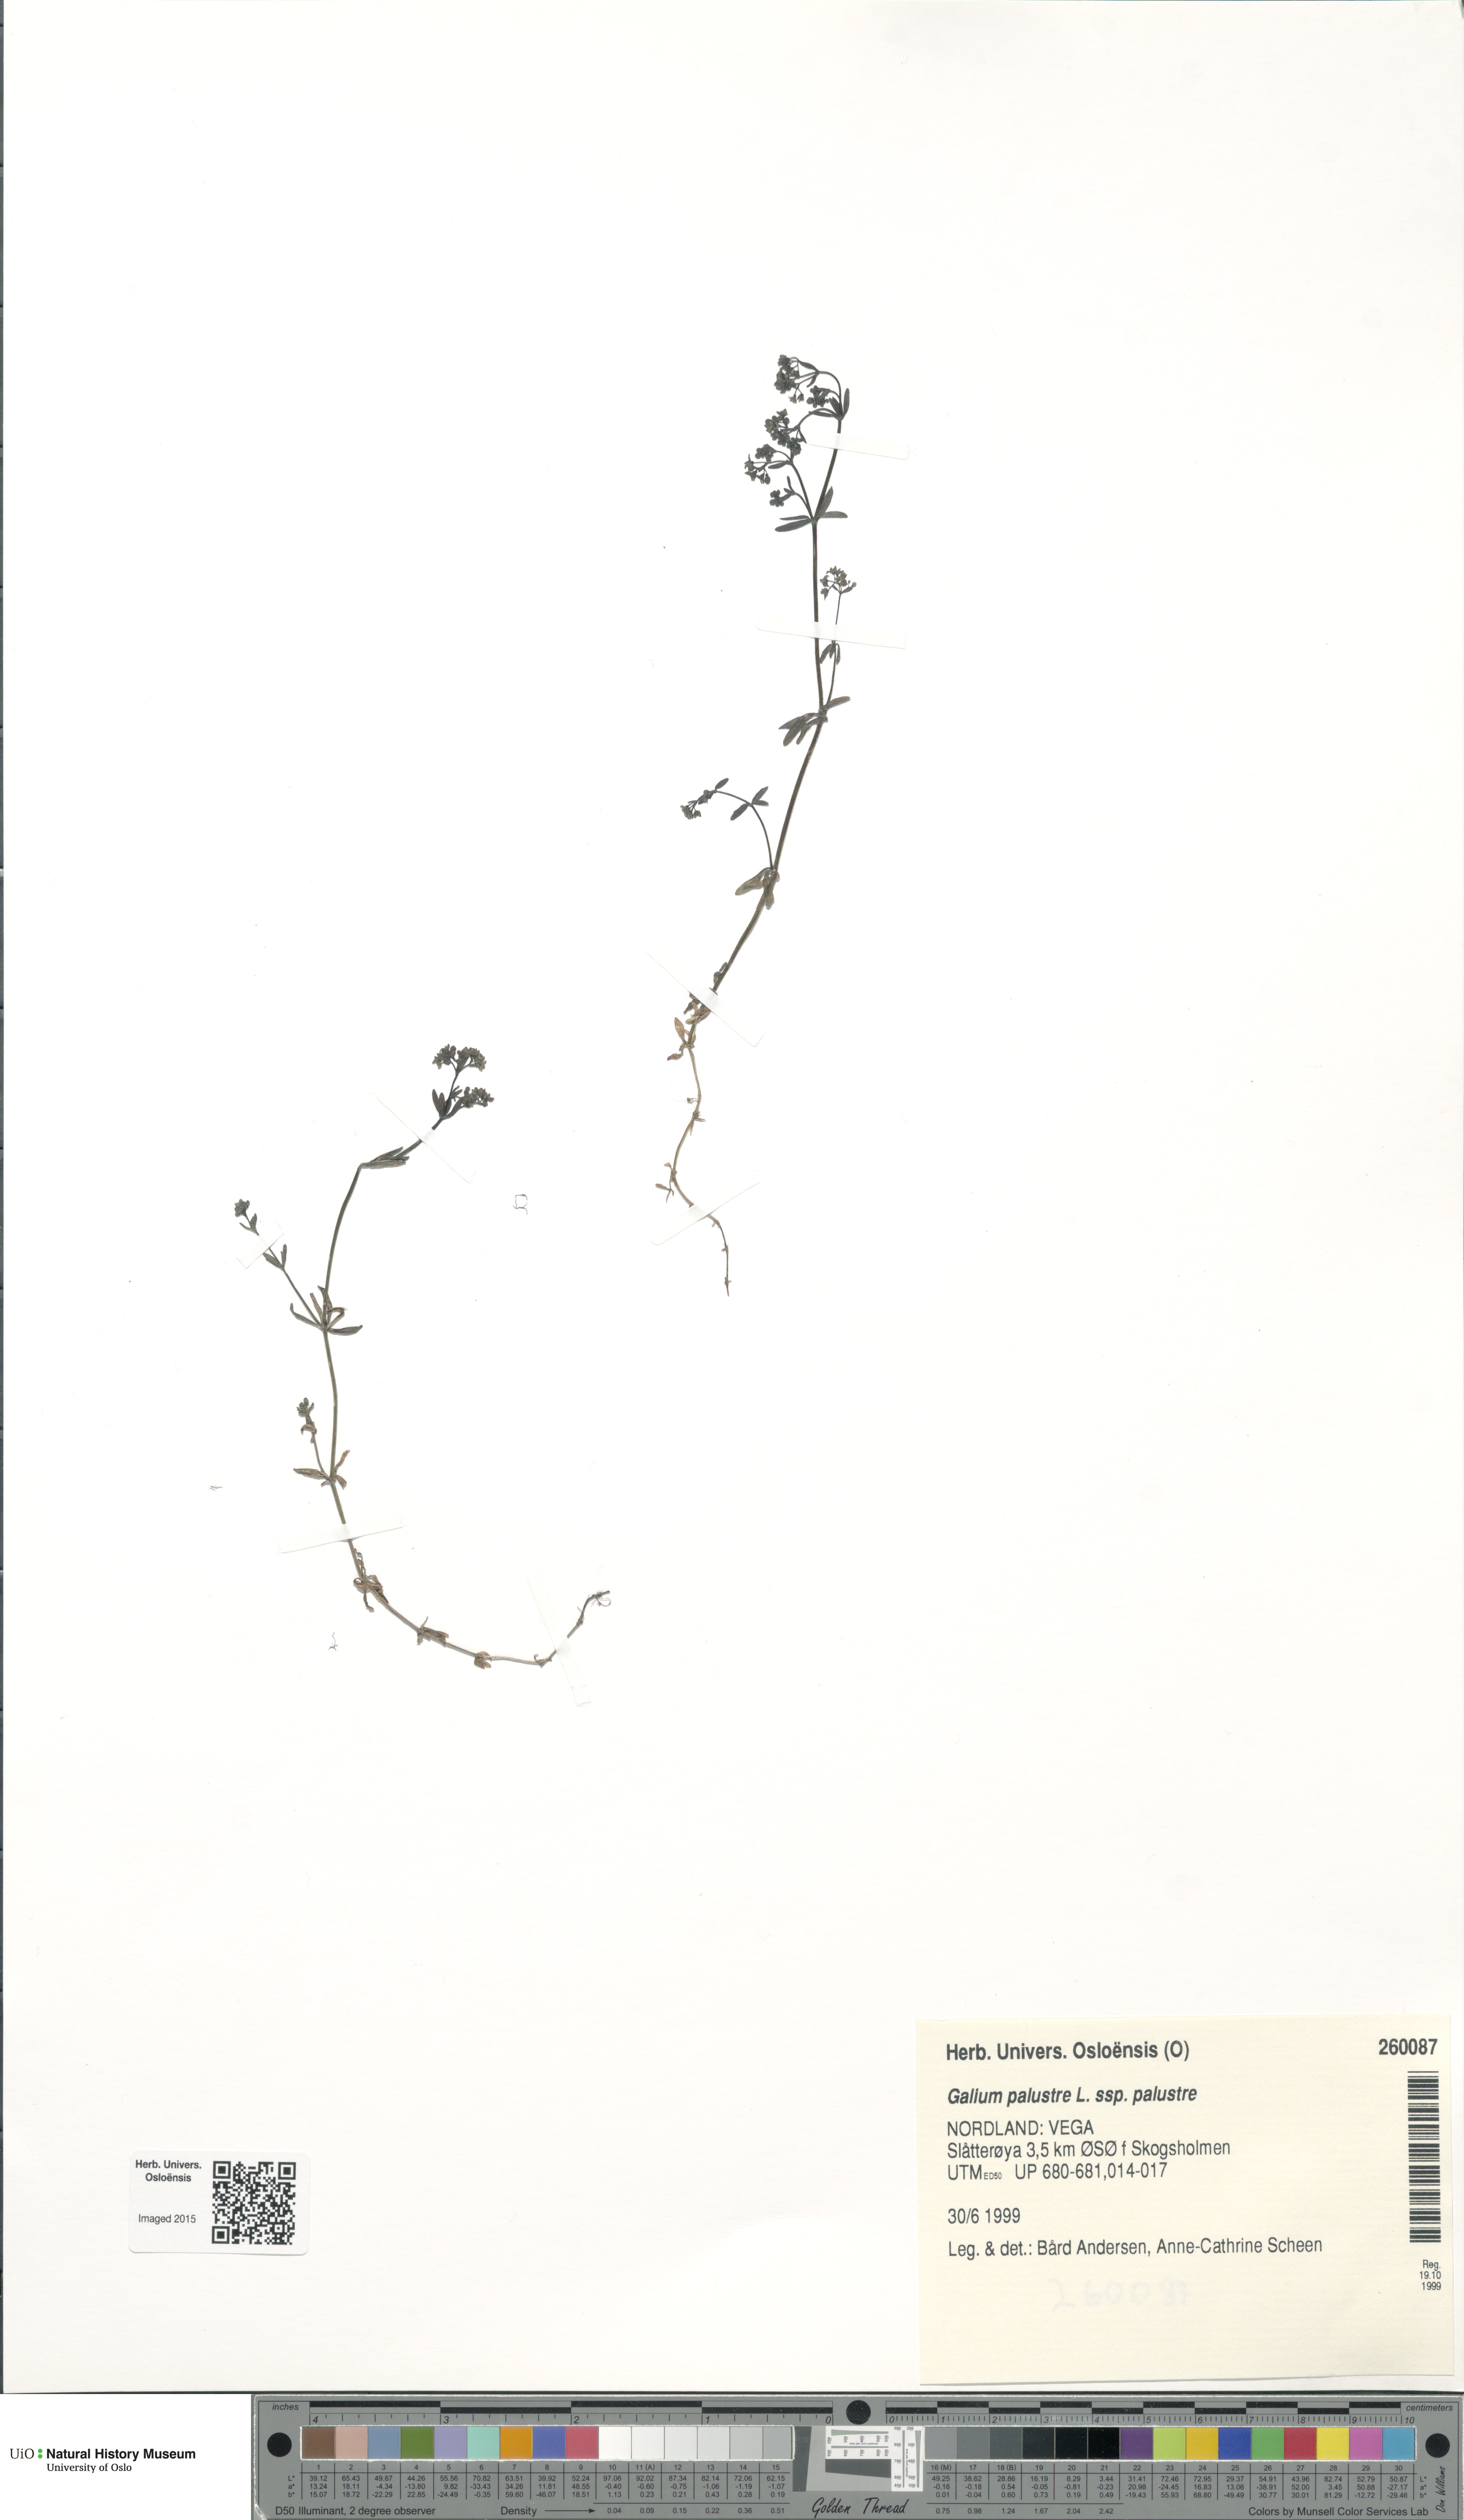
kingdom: Plantae
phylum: Tracheophyta
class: Magnoliopsida
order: Gentianales
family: Rubiaceae
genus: Galium
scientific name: Galium palustre
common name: Common marsh-bedstraw
